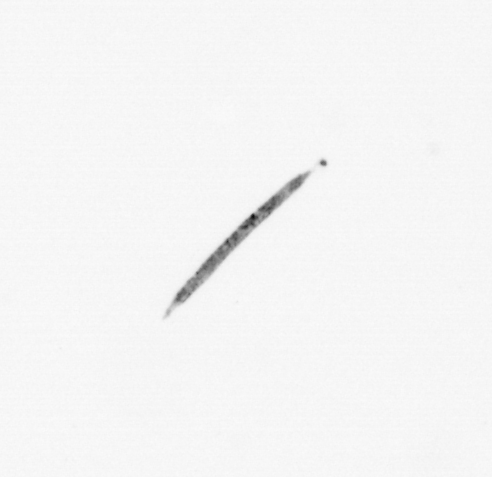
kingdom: Chromista
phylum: Ochrophyta
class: Bacillariophyceae
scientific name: Bacillariophyceae
